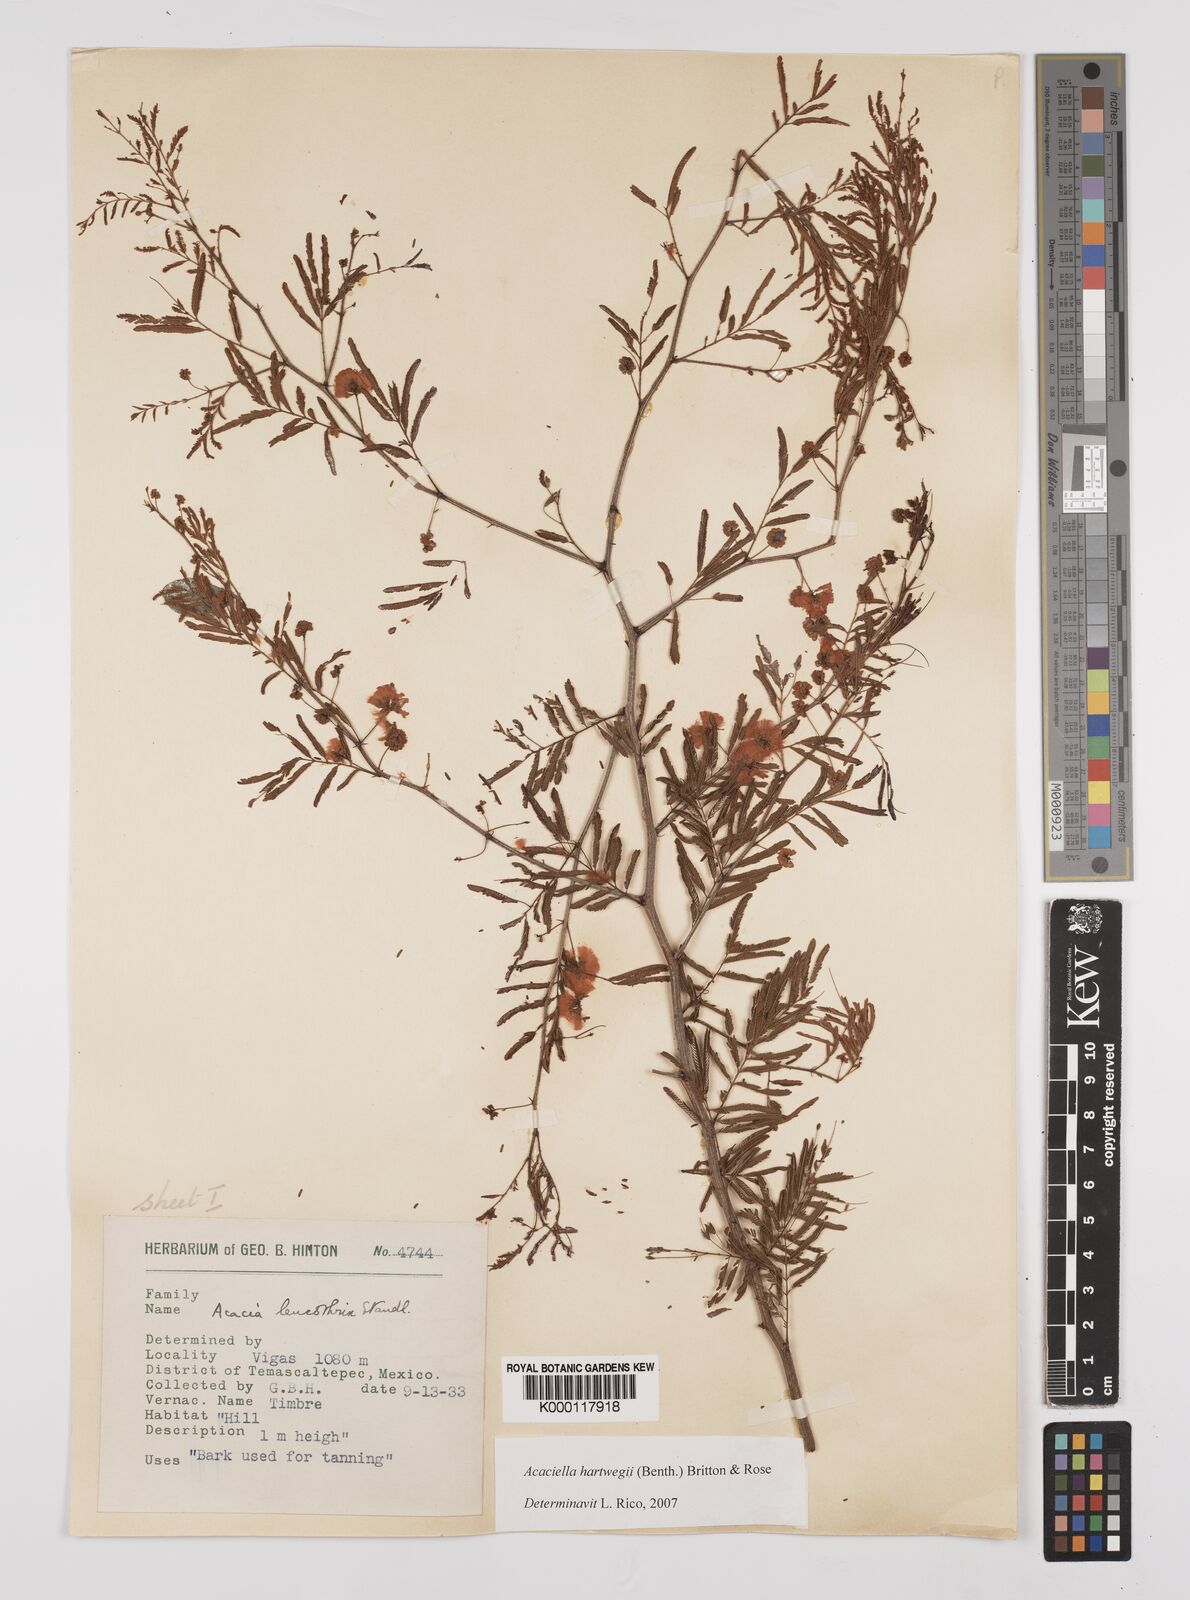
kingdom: Plantae
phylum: Tracheophyta
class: Magnoliopsida
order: Fabales
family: Fabaceae
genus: Acaciella
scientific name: Acaciella hartwegii
